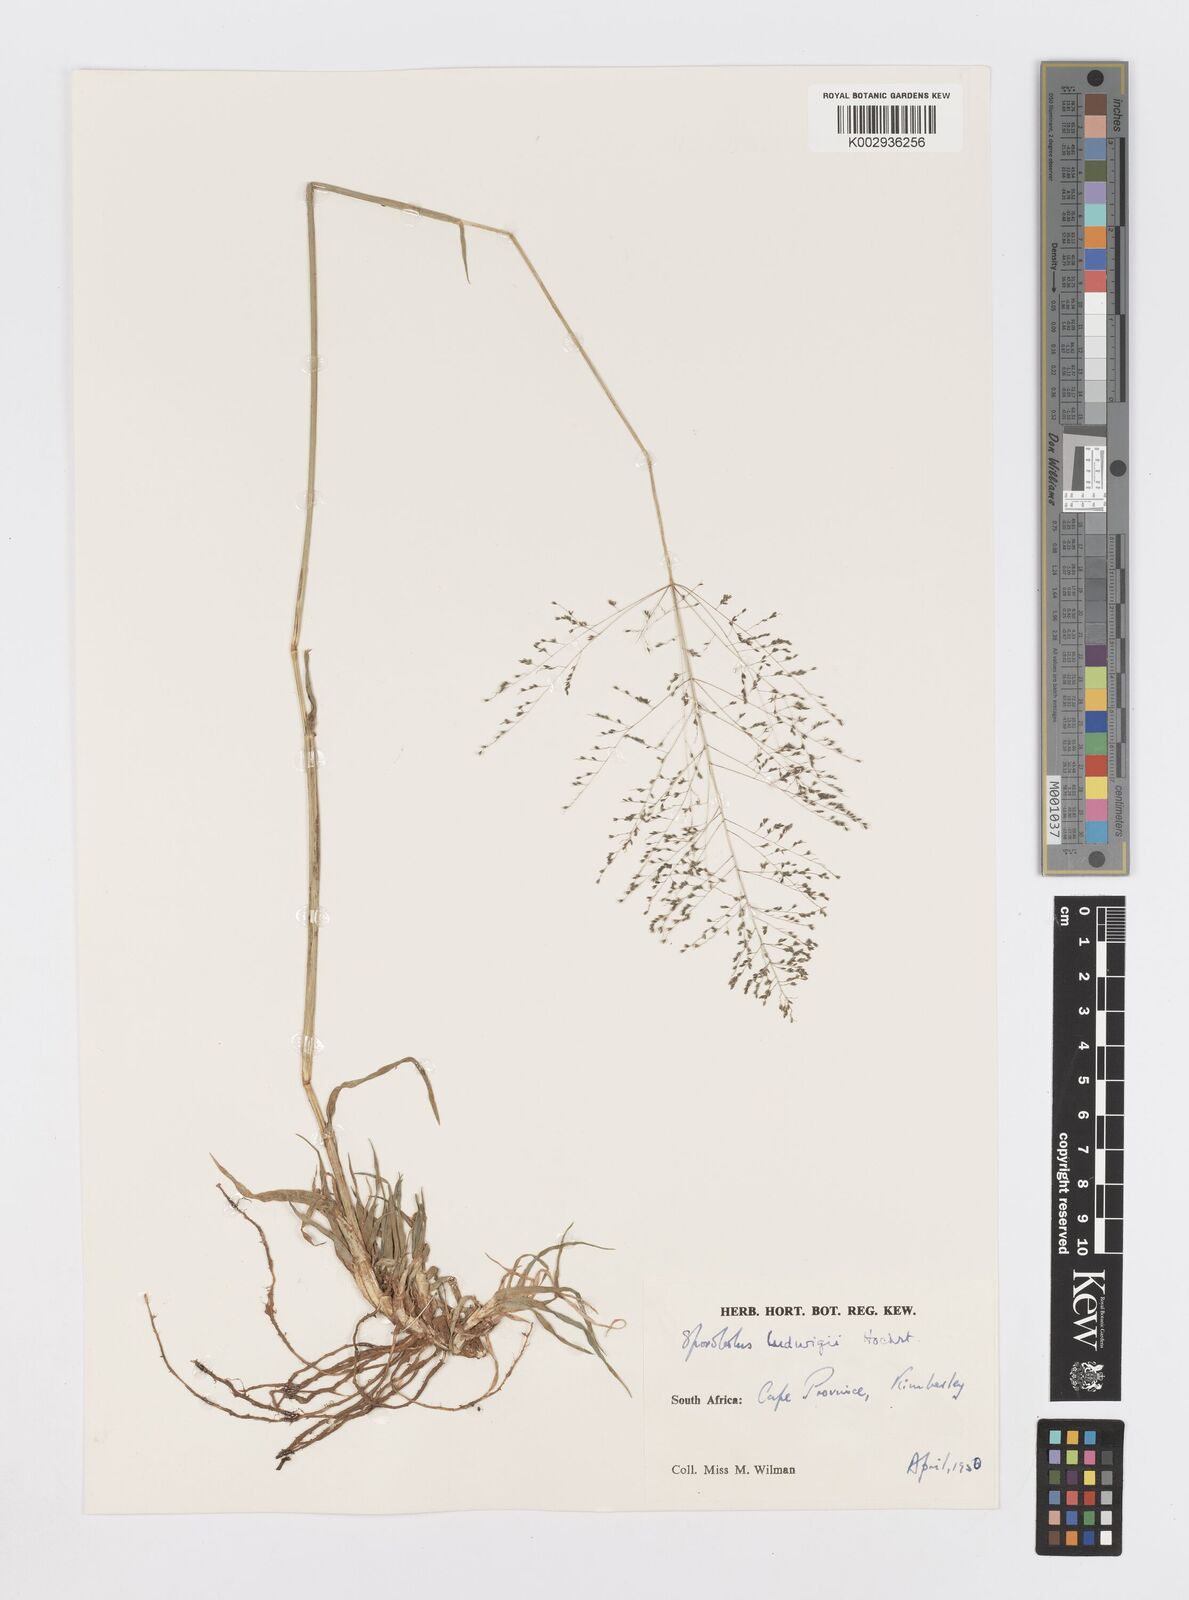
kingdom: Plantae
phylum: Tracheophyta
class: Liliopsida
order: Poales
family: Poaceae
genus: Sporobolus
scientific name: Sporobolus ioclados
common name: Pan dropseed
